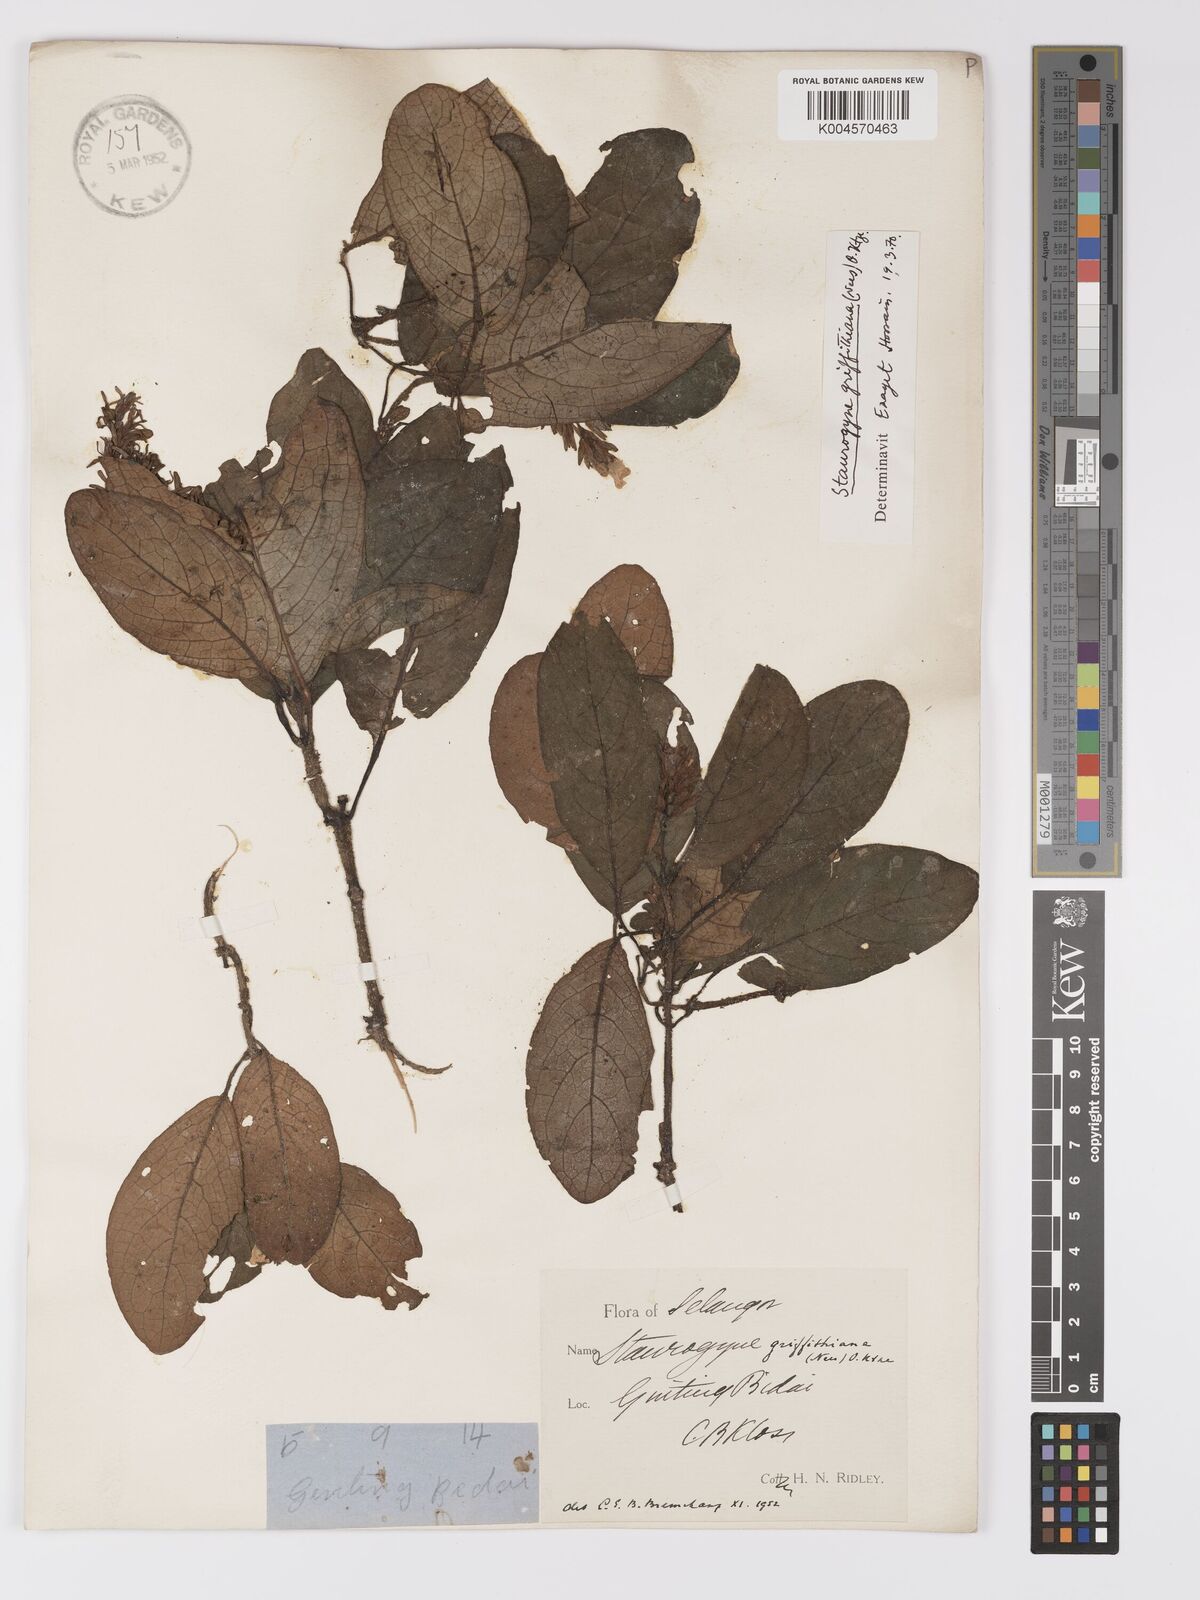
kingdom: Plantae
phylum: Tracheophyta
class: Magnoliopsida
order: Lamiales
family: Acanthaceae
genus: Staurogyne
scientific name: Staurogyne griffithiana
